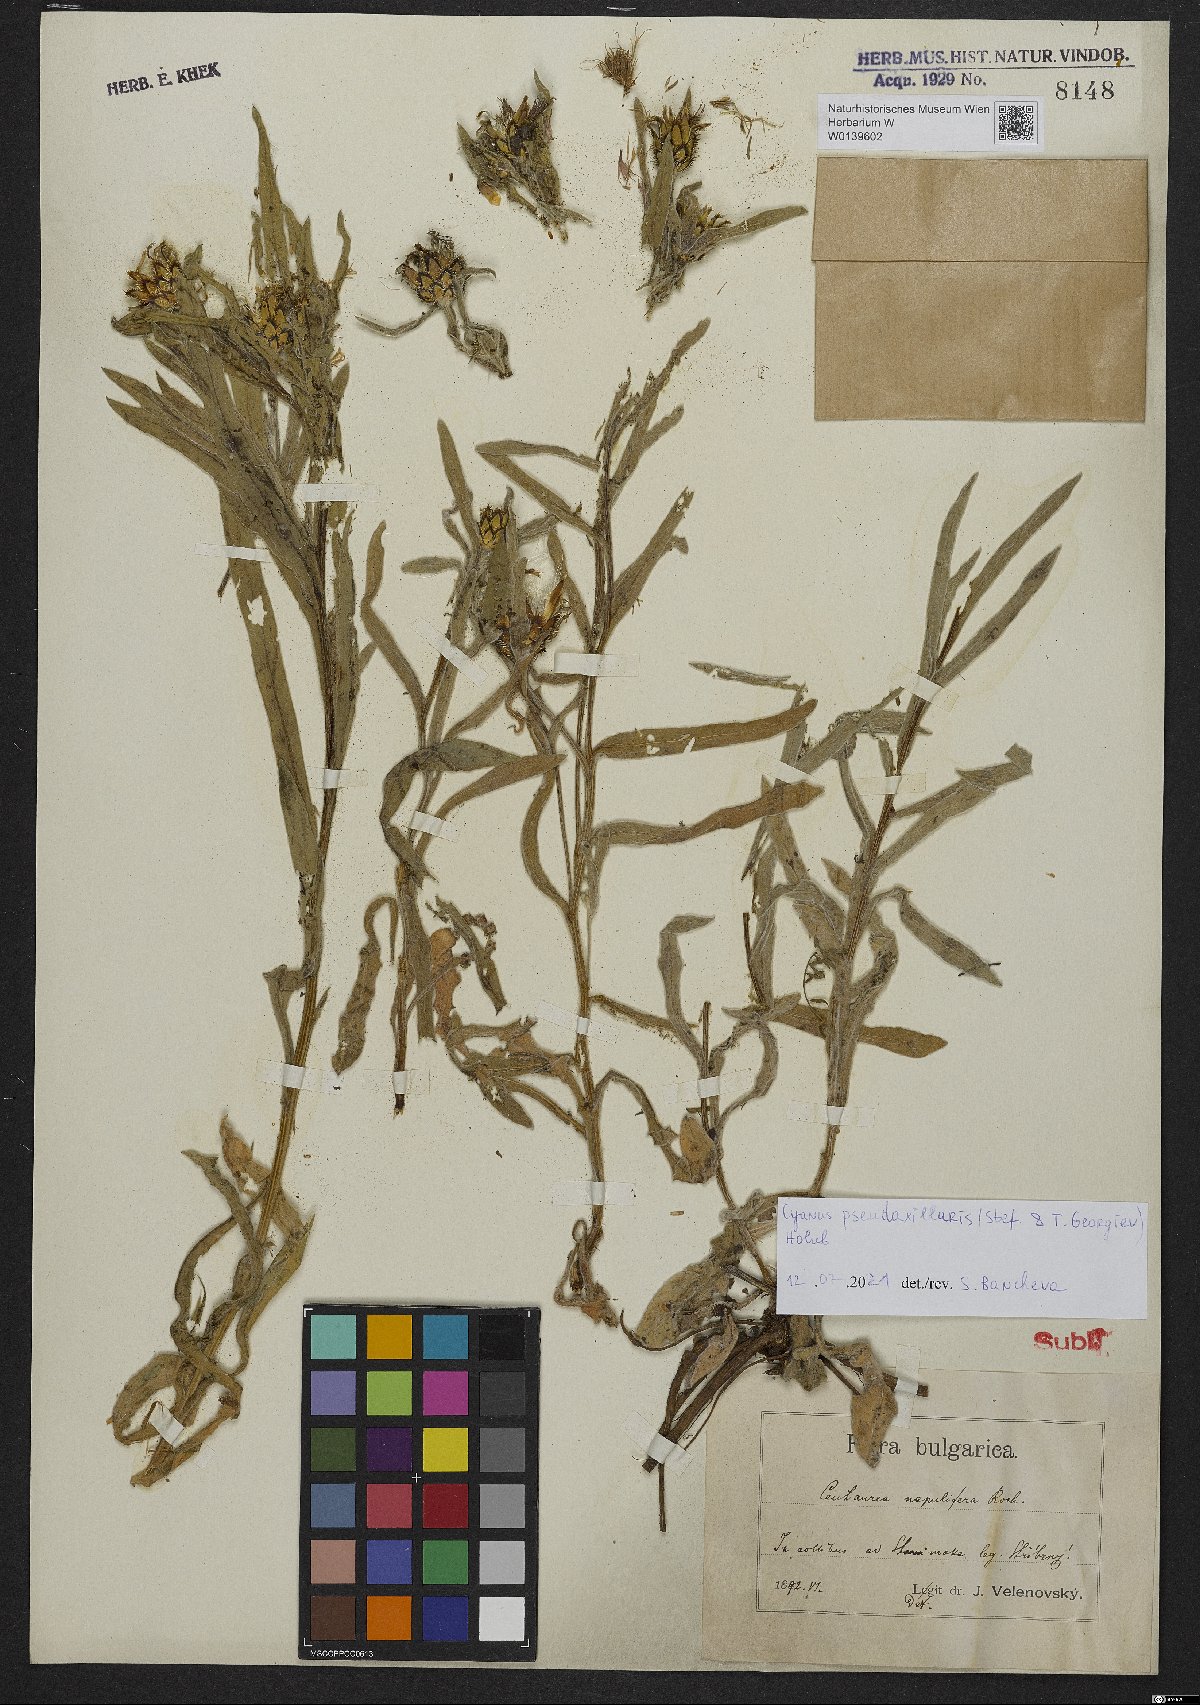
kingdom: Plantae
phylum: Tracheophyta
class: Magnoliopsida
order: Asterales
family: Asteraceae
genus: Centaurea
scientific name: Centaurea pseudoaxillaris
